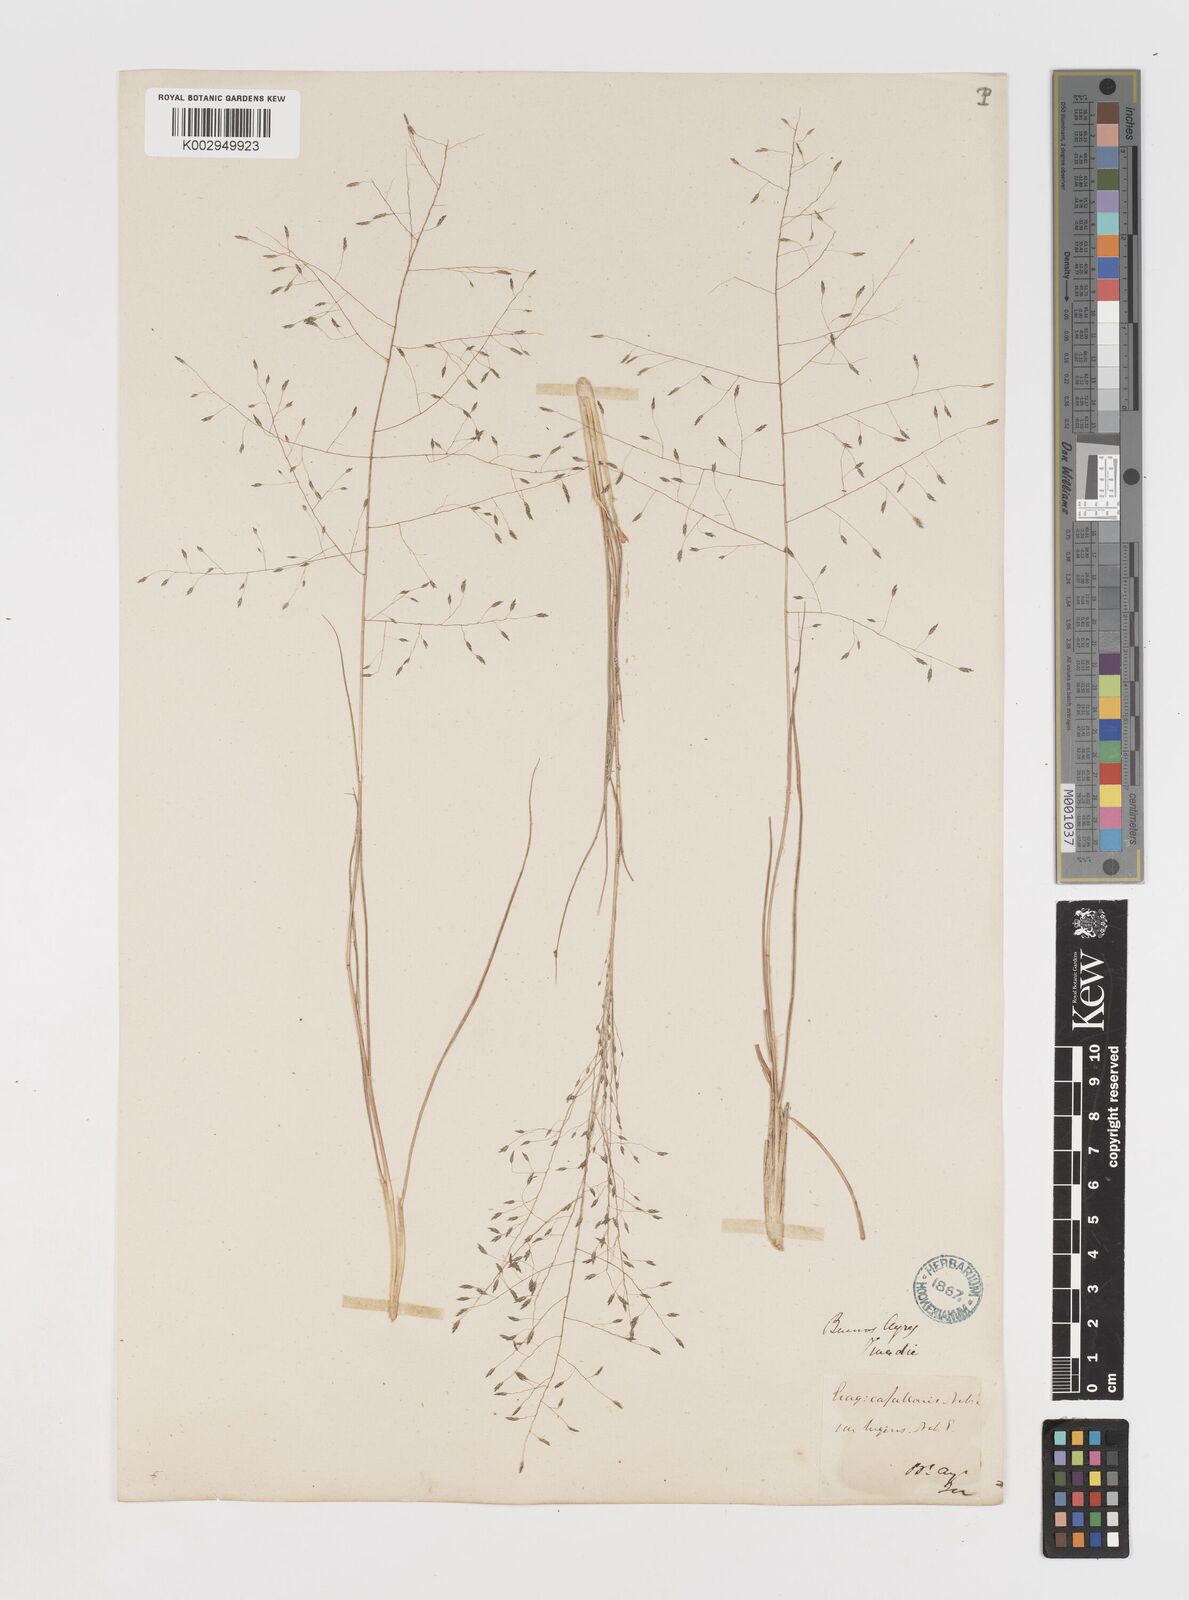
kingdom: Plantae
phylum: Tracheophyta
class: Liliopsida
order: Poales
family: Poaceae
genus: Eragrostis
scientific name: Eragrostis lugens
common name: Mourning love grass
